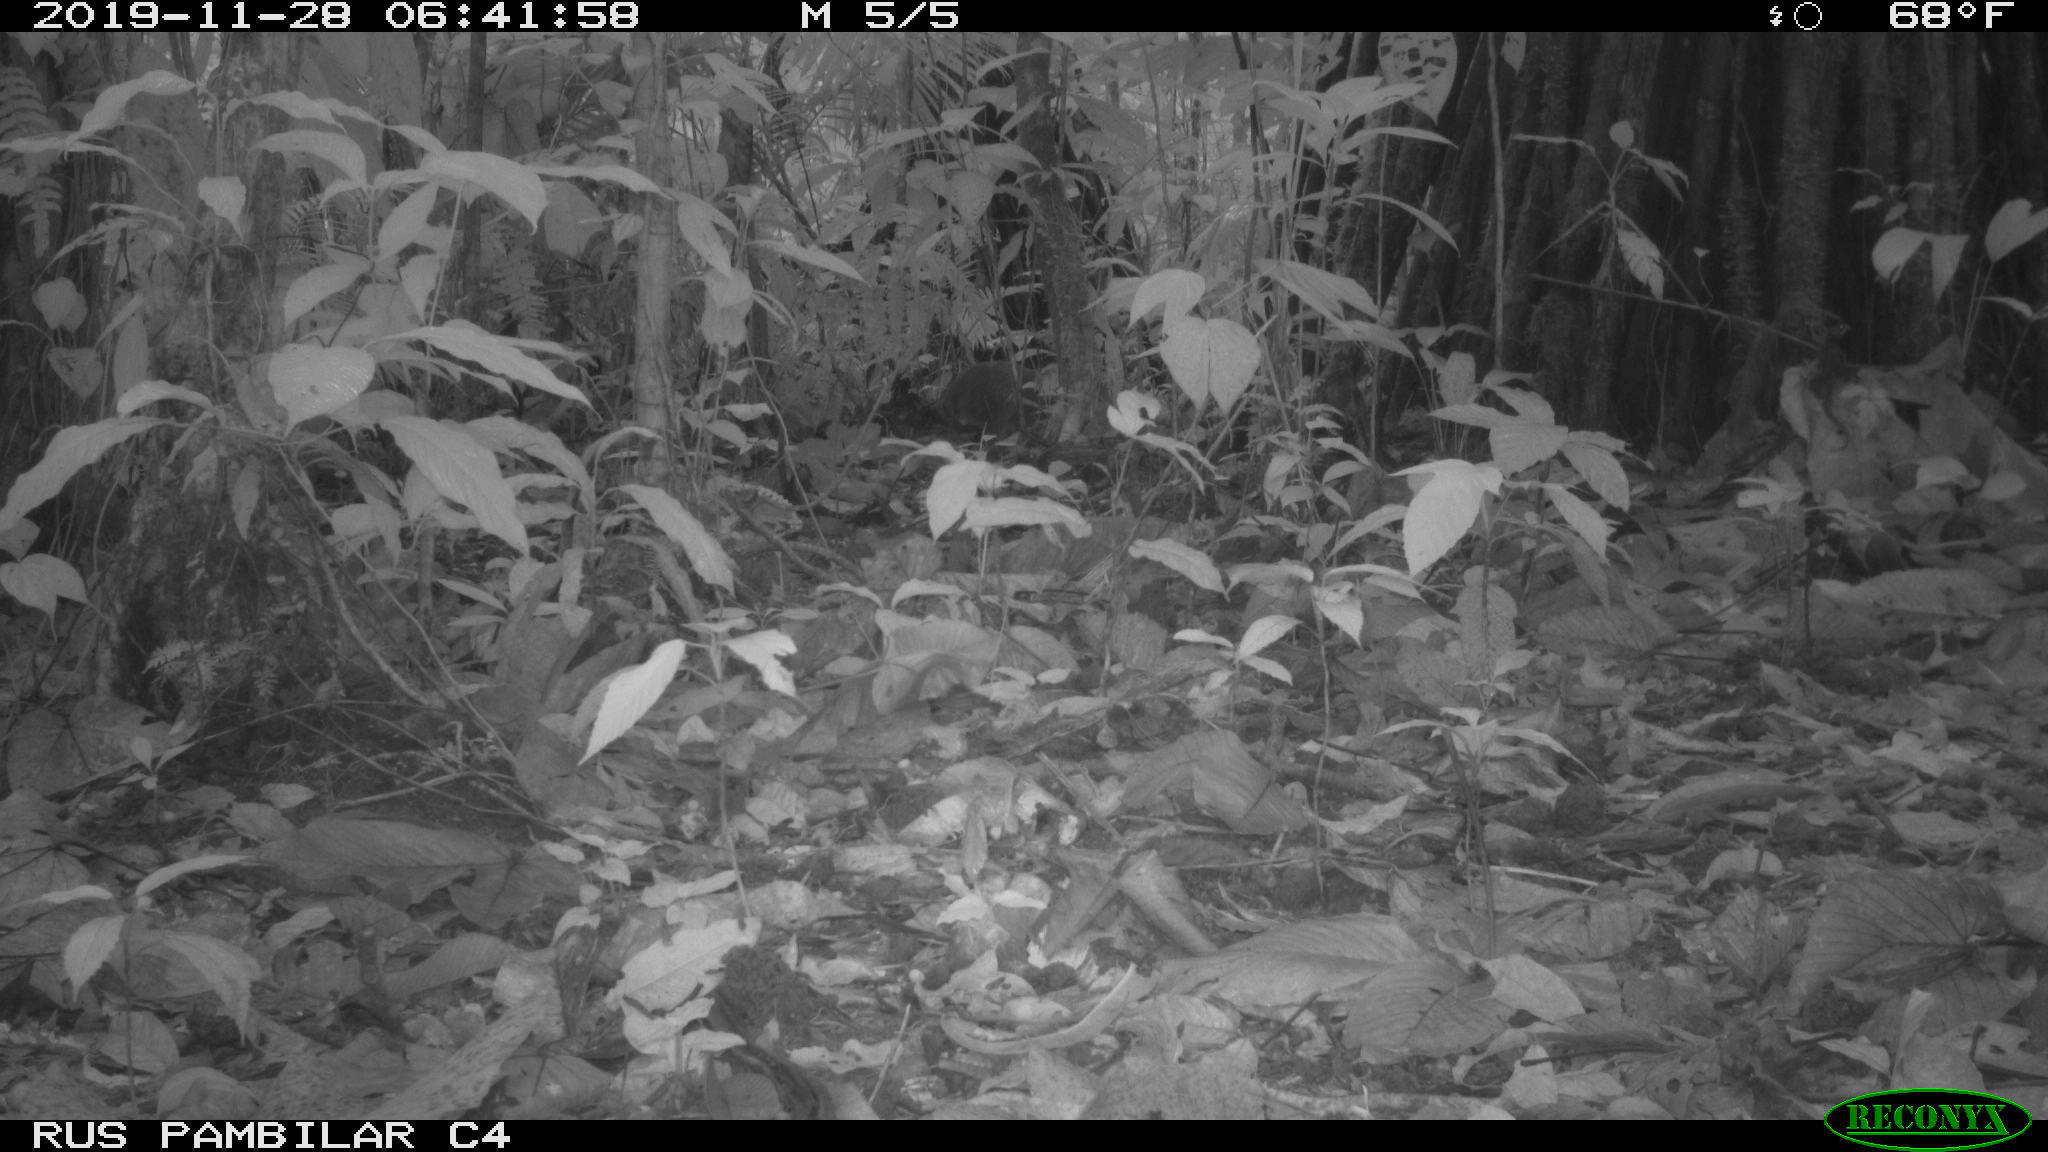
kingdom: Animalia
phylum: Chordata
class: Mammalia
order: Rodentia
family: Dasyproctidae
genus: Dasyprocta
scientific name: Dasyprocta punctata
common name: Central american agouti
